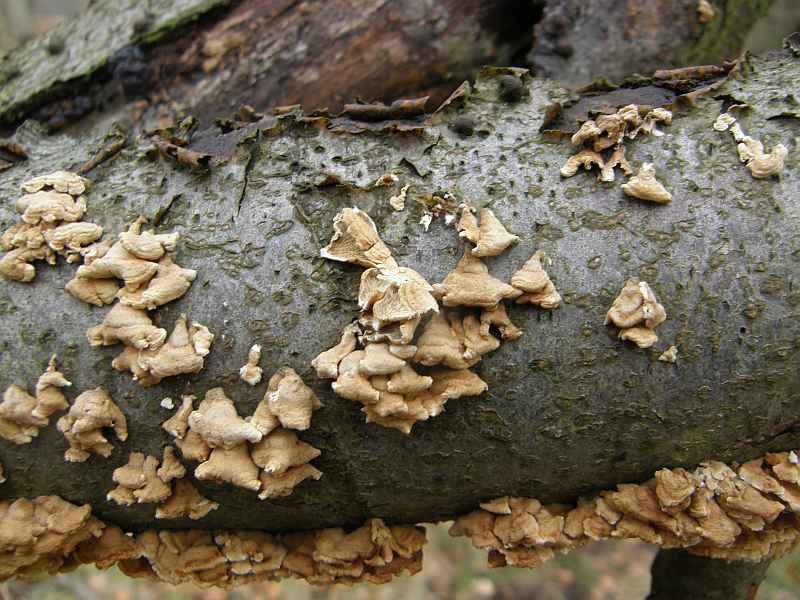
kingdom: Fungi
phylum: Basidiomycota
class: Agaricomycetes
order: Amylocorticiales
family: Amylocorticiaceae
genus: Plicaturopsis
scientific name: Plicaturopsis crispa
